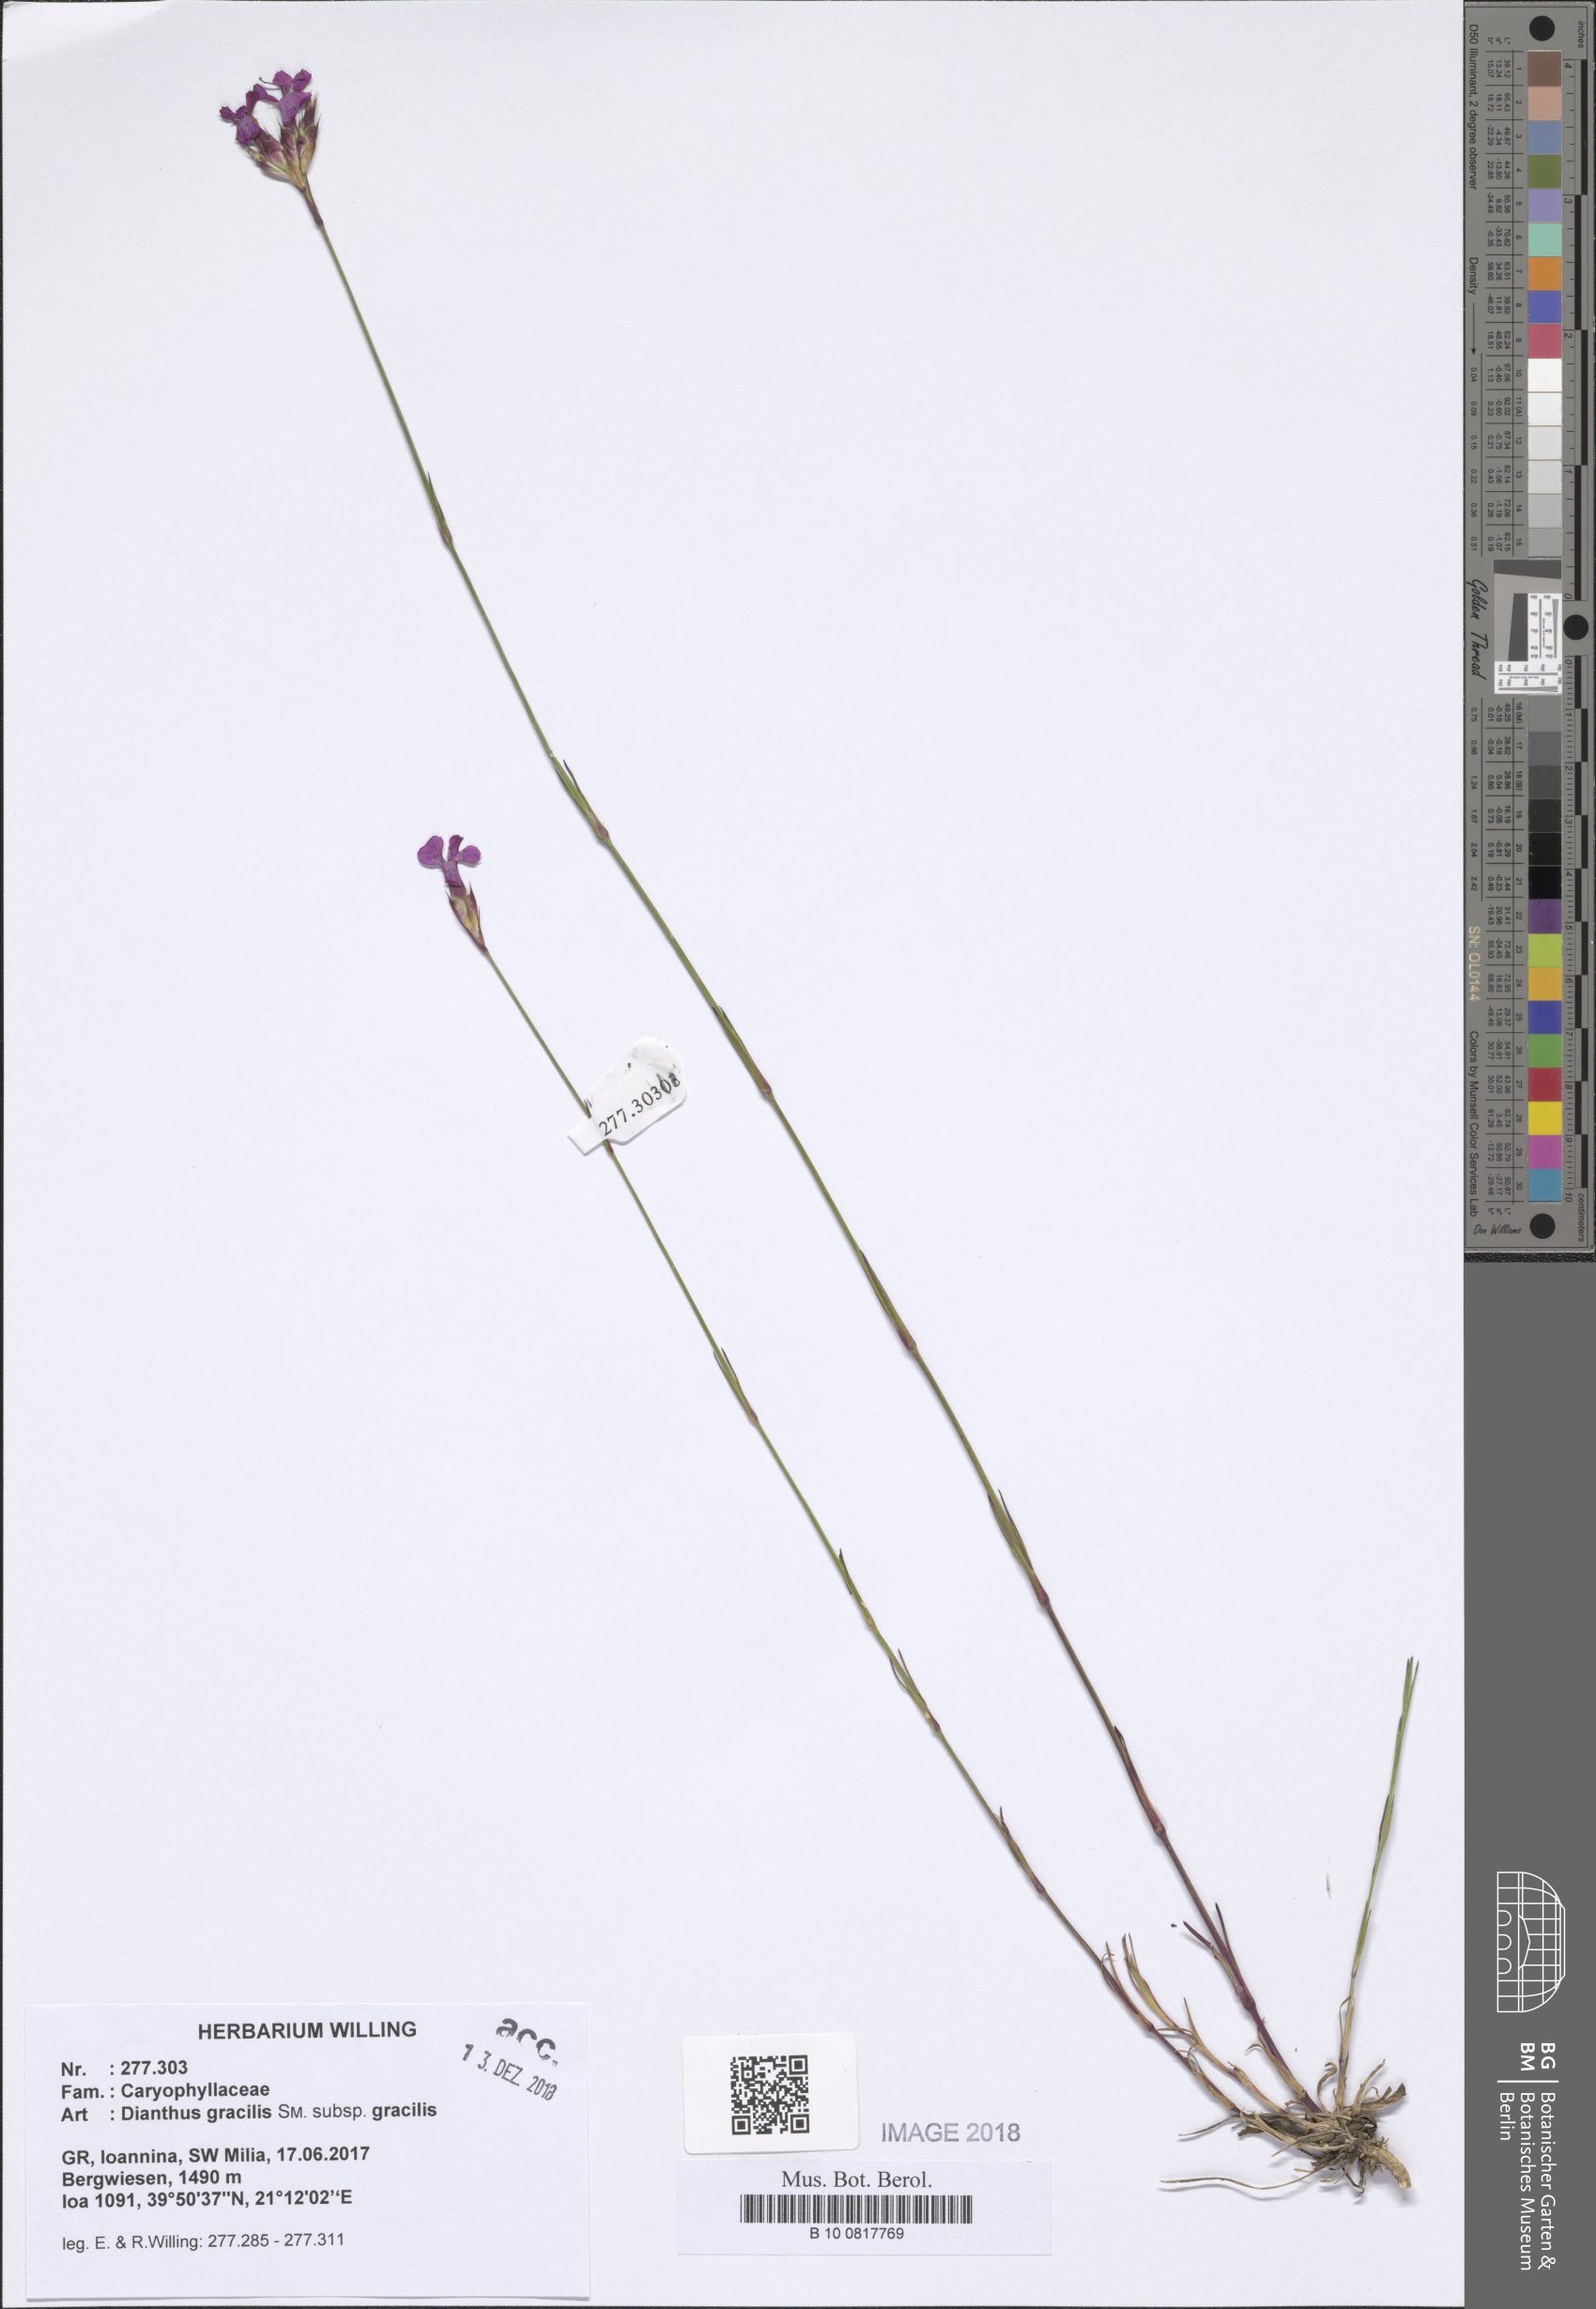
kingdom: Plantae
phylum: Tracheophyta
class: Magnoliopsida
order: Caryophyllales
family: Caryophyllaceae
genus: Dianthus
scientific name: Dianthus gracilis
